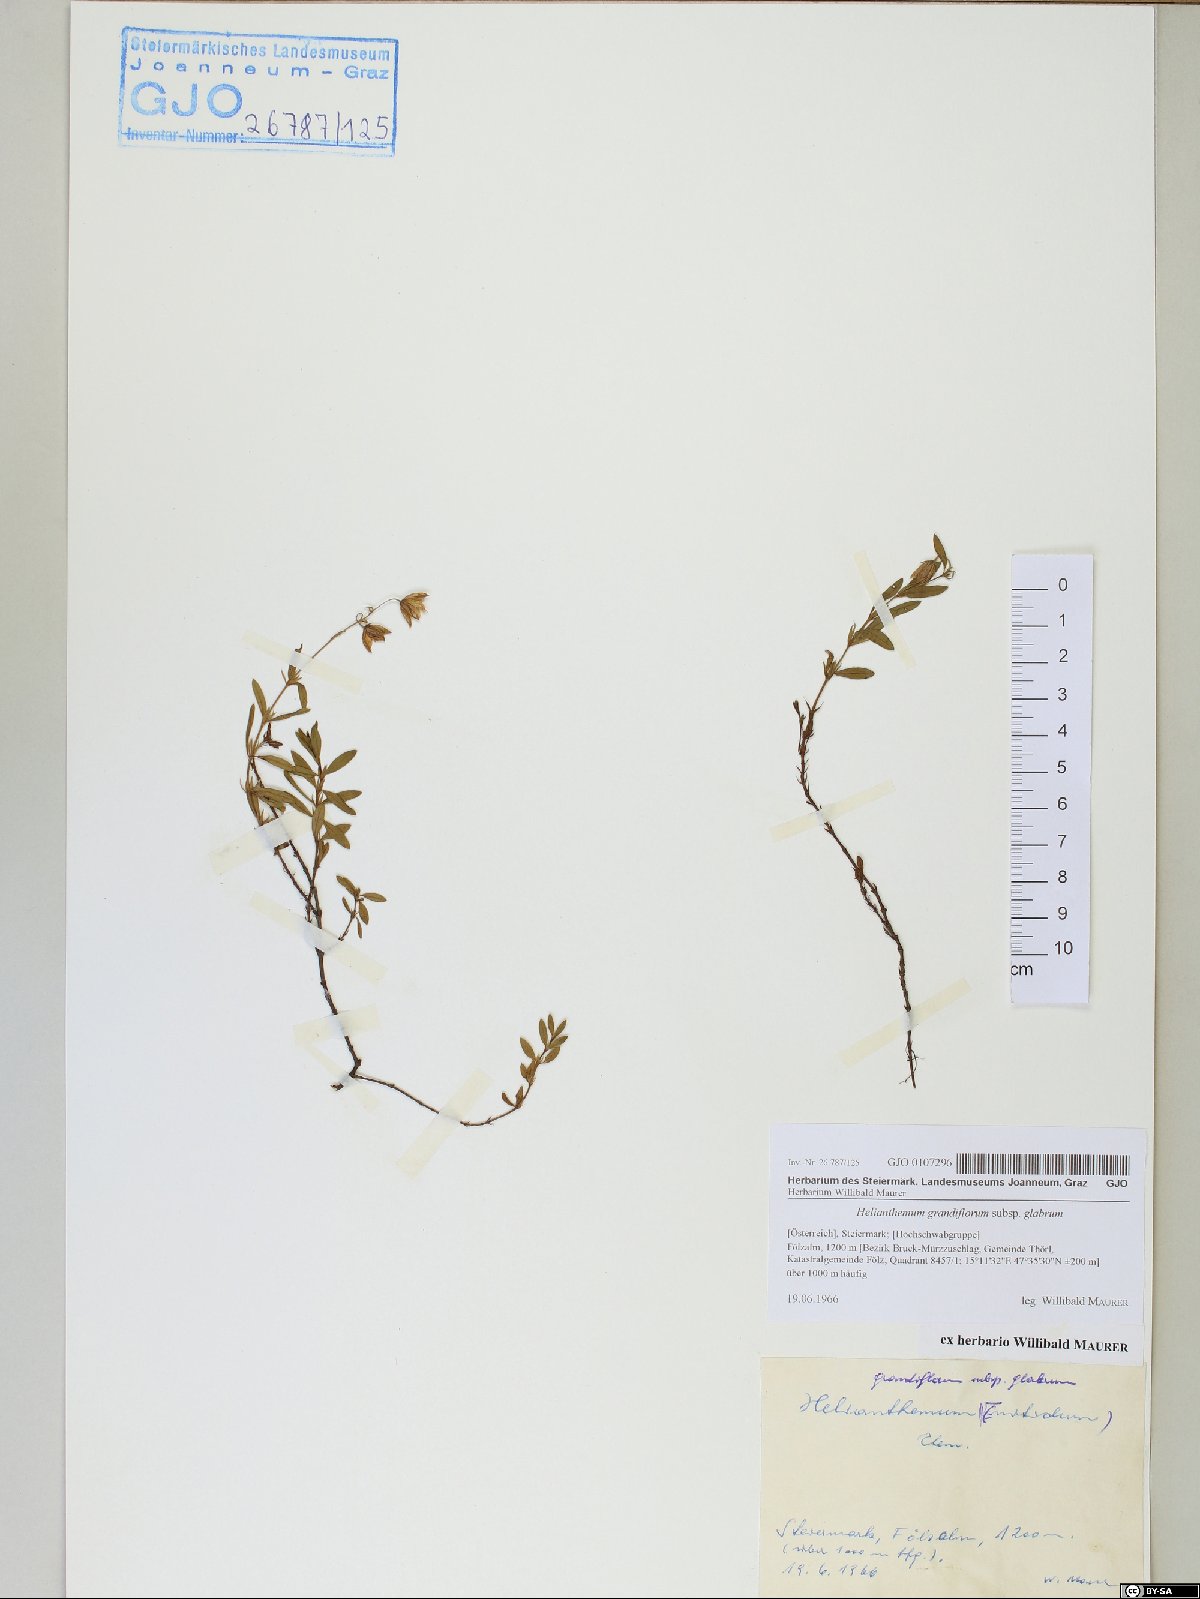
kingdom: Plantae
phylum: Tracheophyta
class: Magnoliopsida
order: Malvales
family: Cistaceae
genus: Helianthemum
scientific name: Helianthemum nummularium
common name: Common rock-rose
